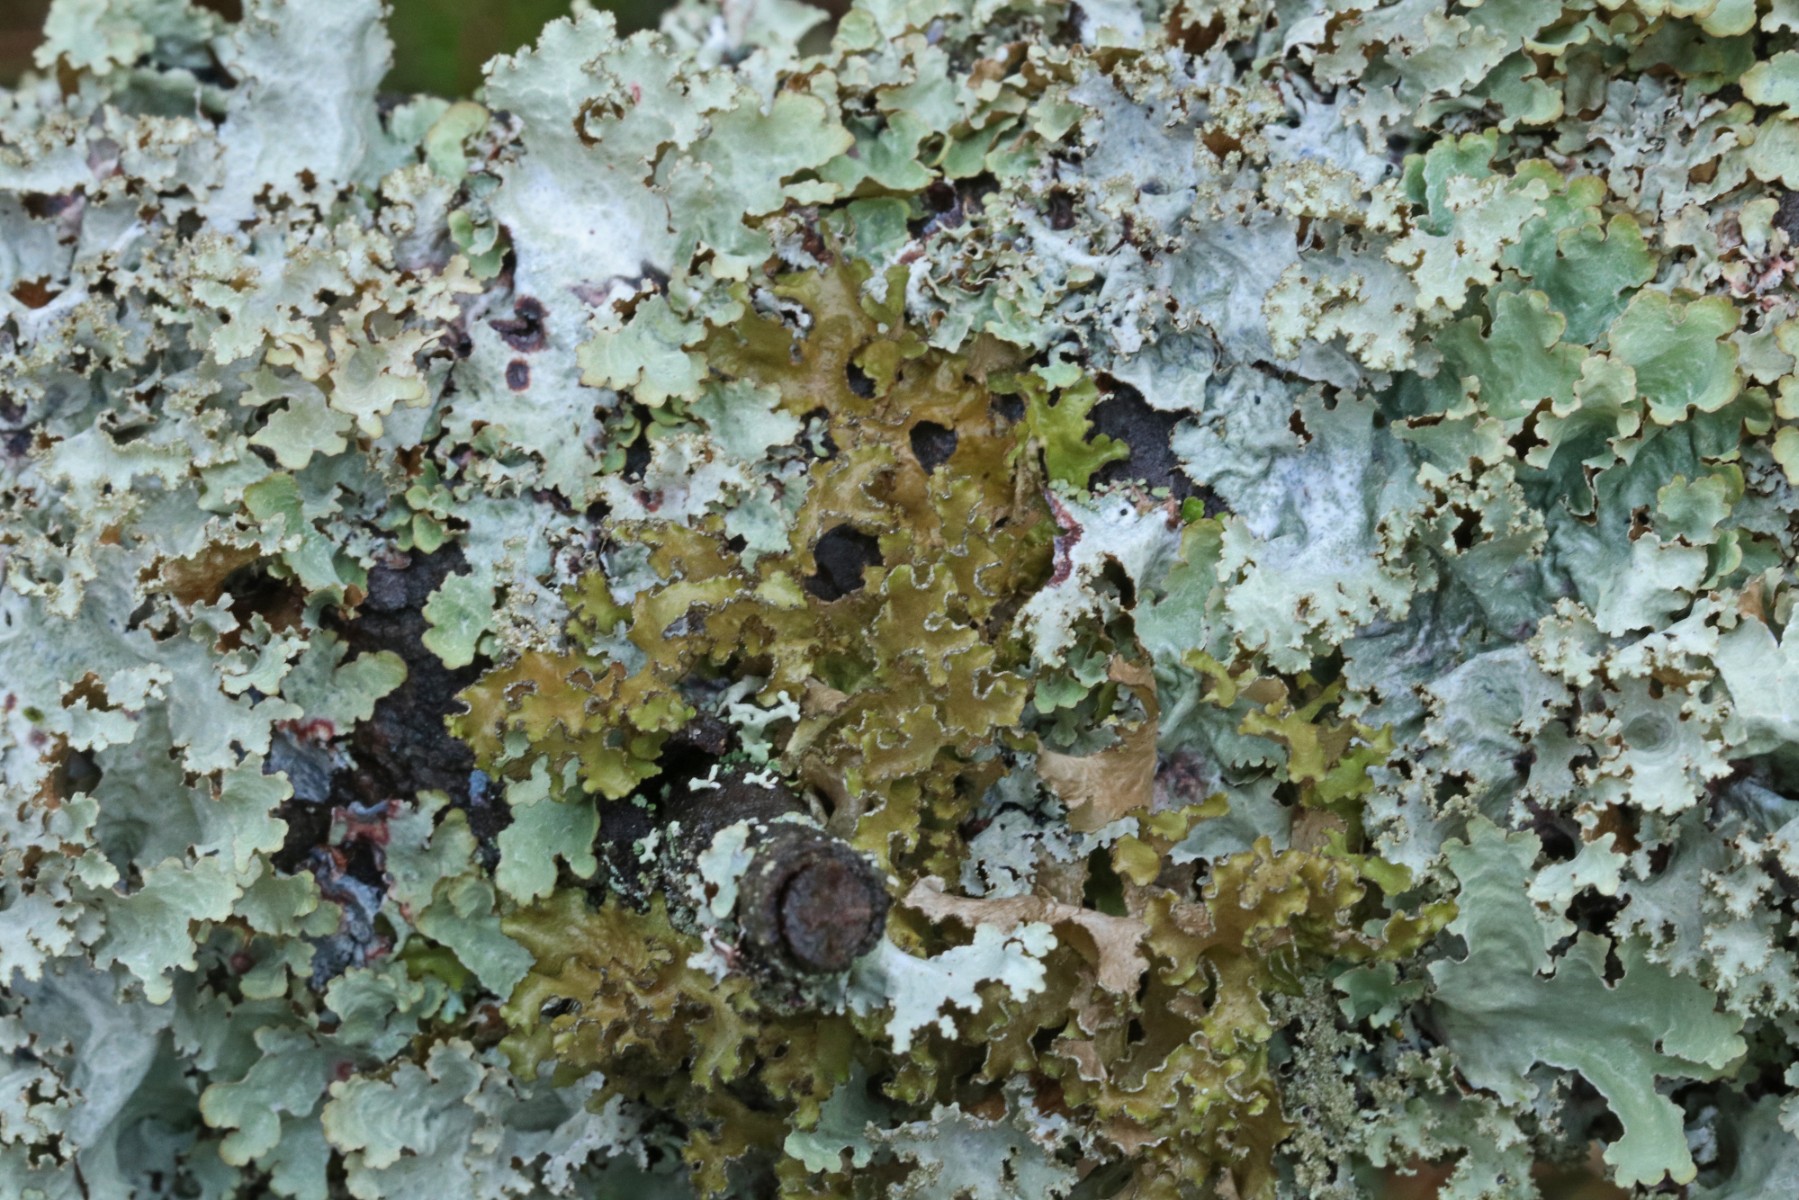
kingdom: Fungi
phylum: Ascomycota
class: Lecanoromycetes
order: Lecanorales
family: Parmeliaceae
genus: Nephromopsis
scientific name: Nephromopsis chlorophylla
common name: olivenbrun kruslav
